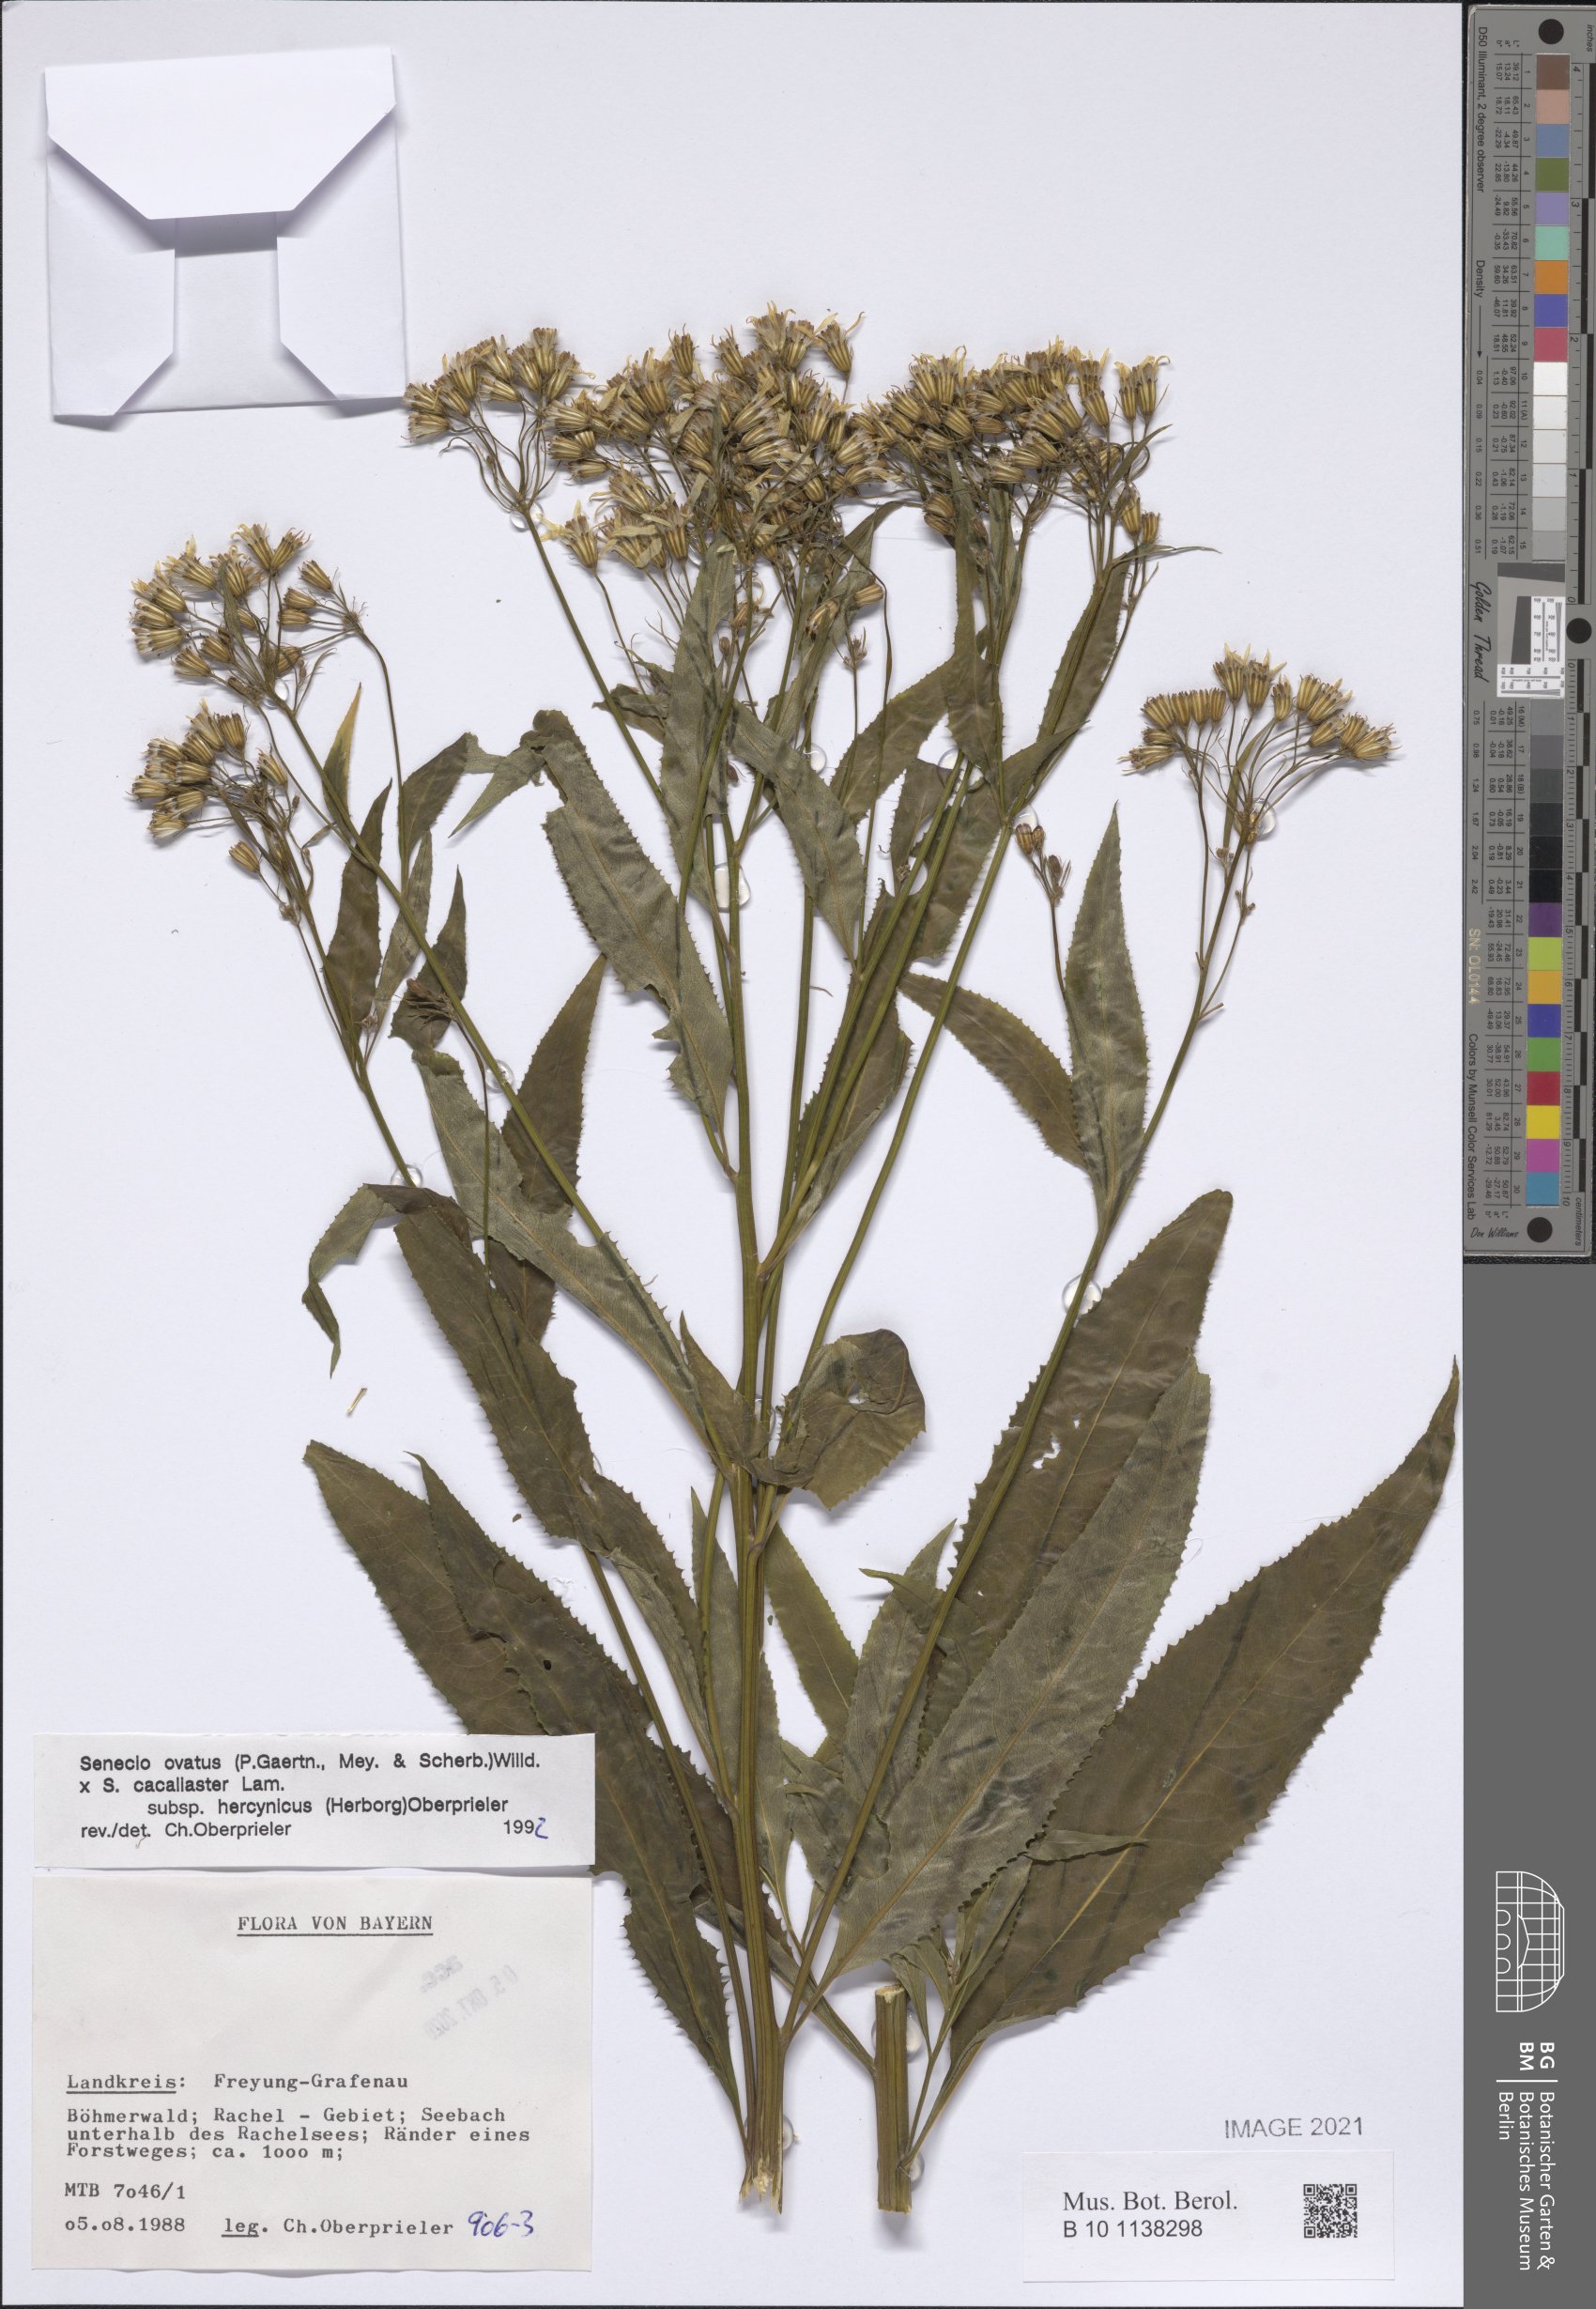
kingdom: Plantae
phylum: Tracheophyta
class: Magnoliopsida
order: Asterales
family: Asteraceae
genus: Senecio
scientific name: Senecio ovatus
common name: Wood ragwort
